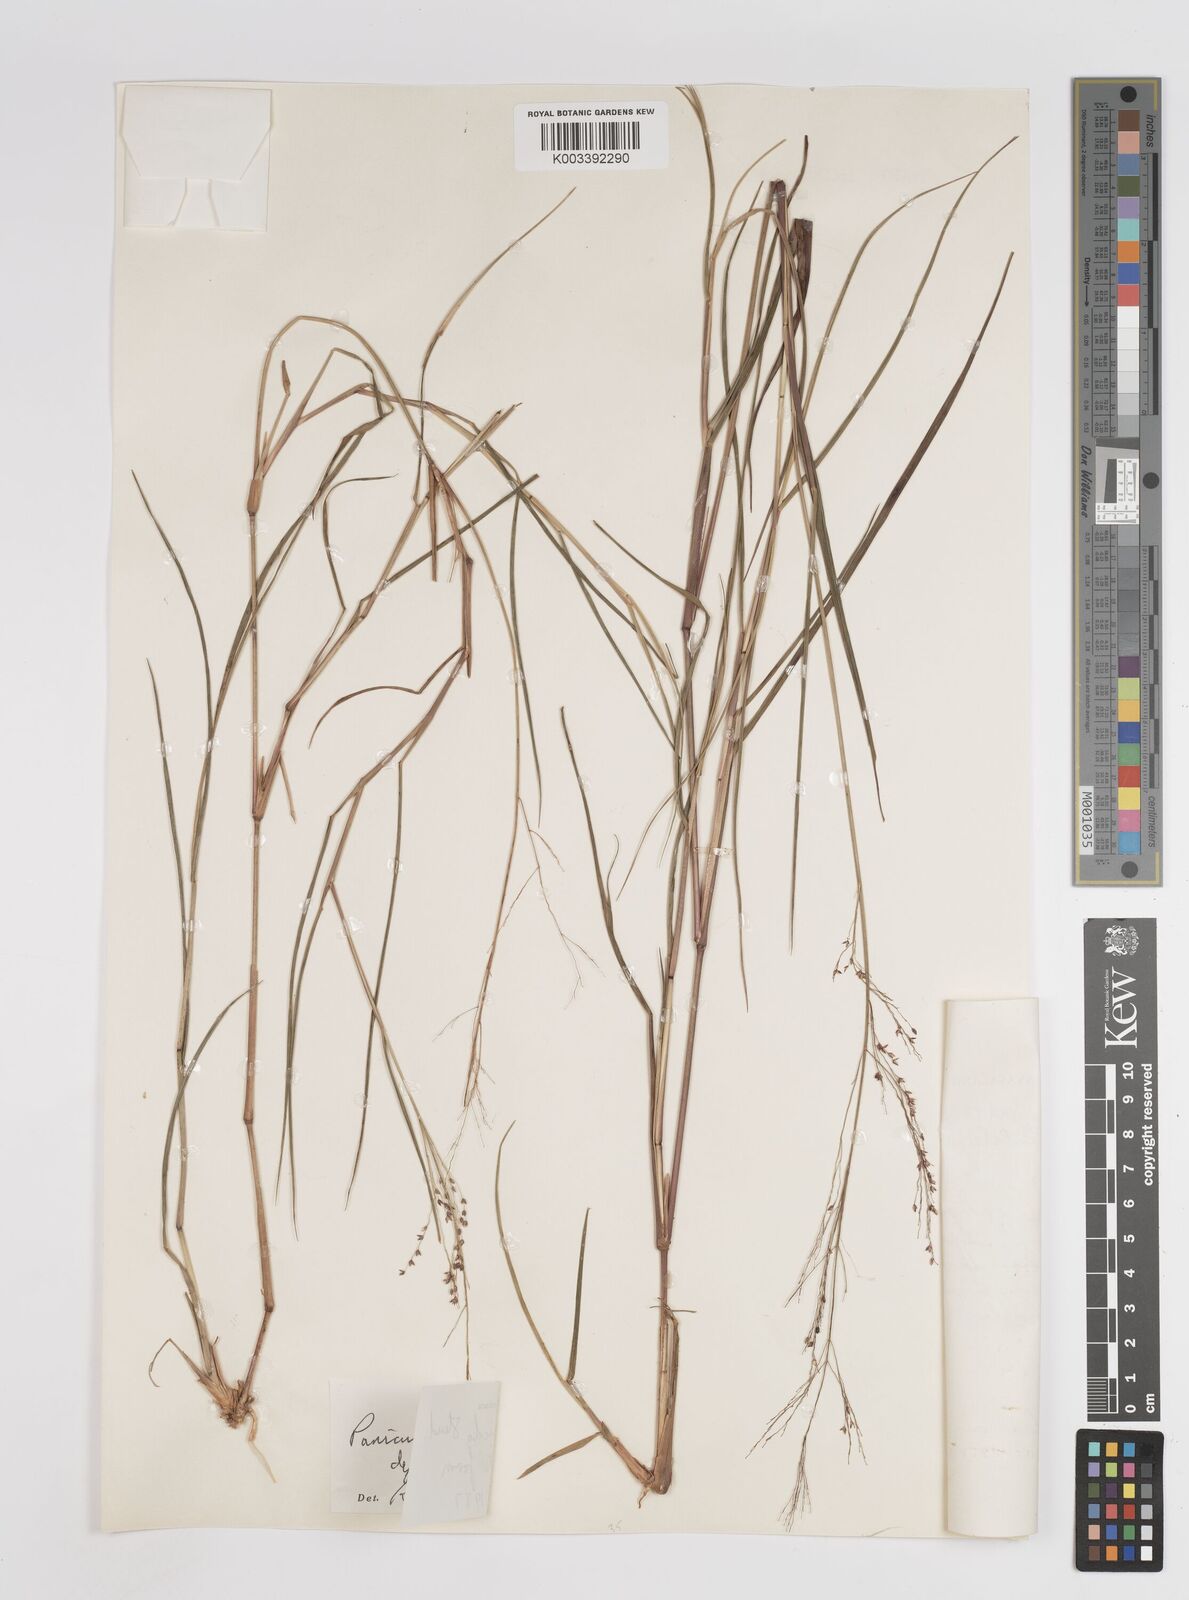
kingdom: Plantae
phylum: Tracheophyta
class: Liliopsida
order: Poales
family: Poaceae
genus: Panicum
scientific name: Panicum fluviicola
